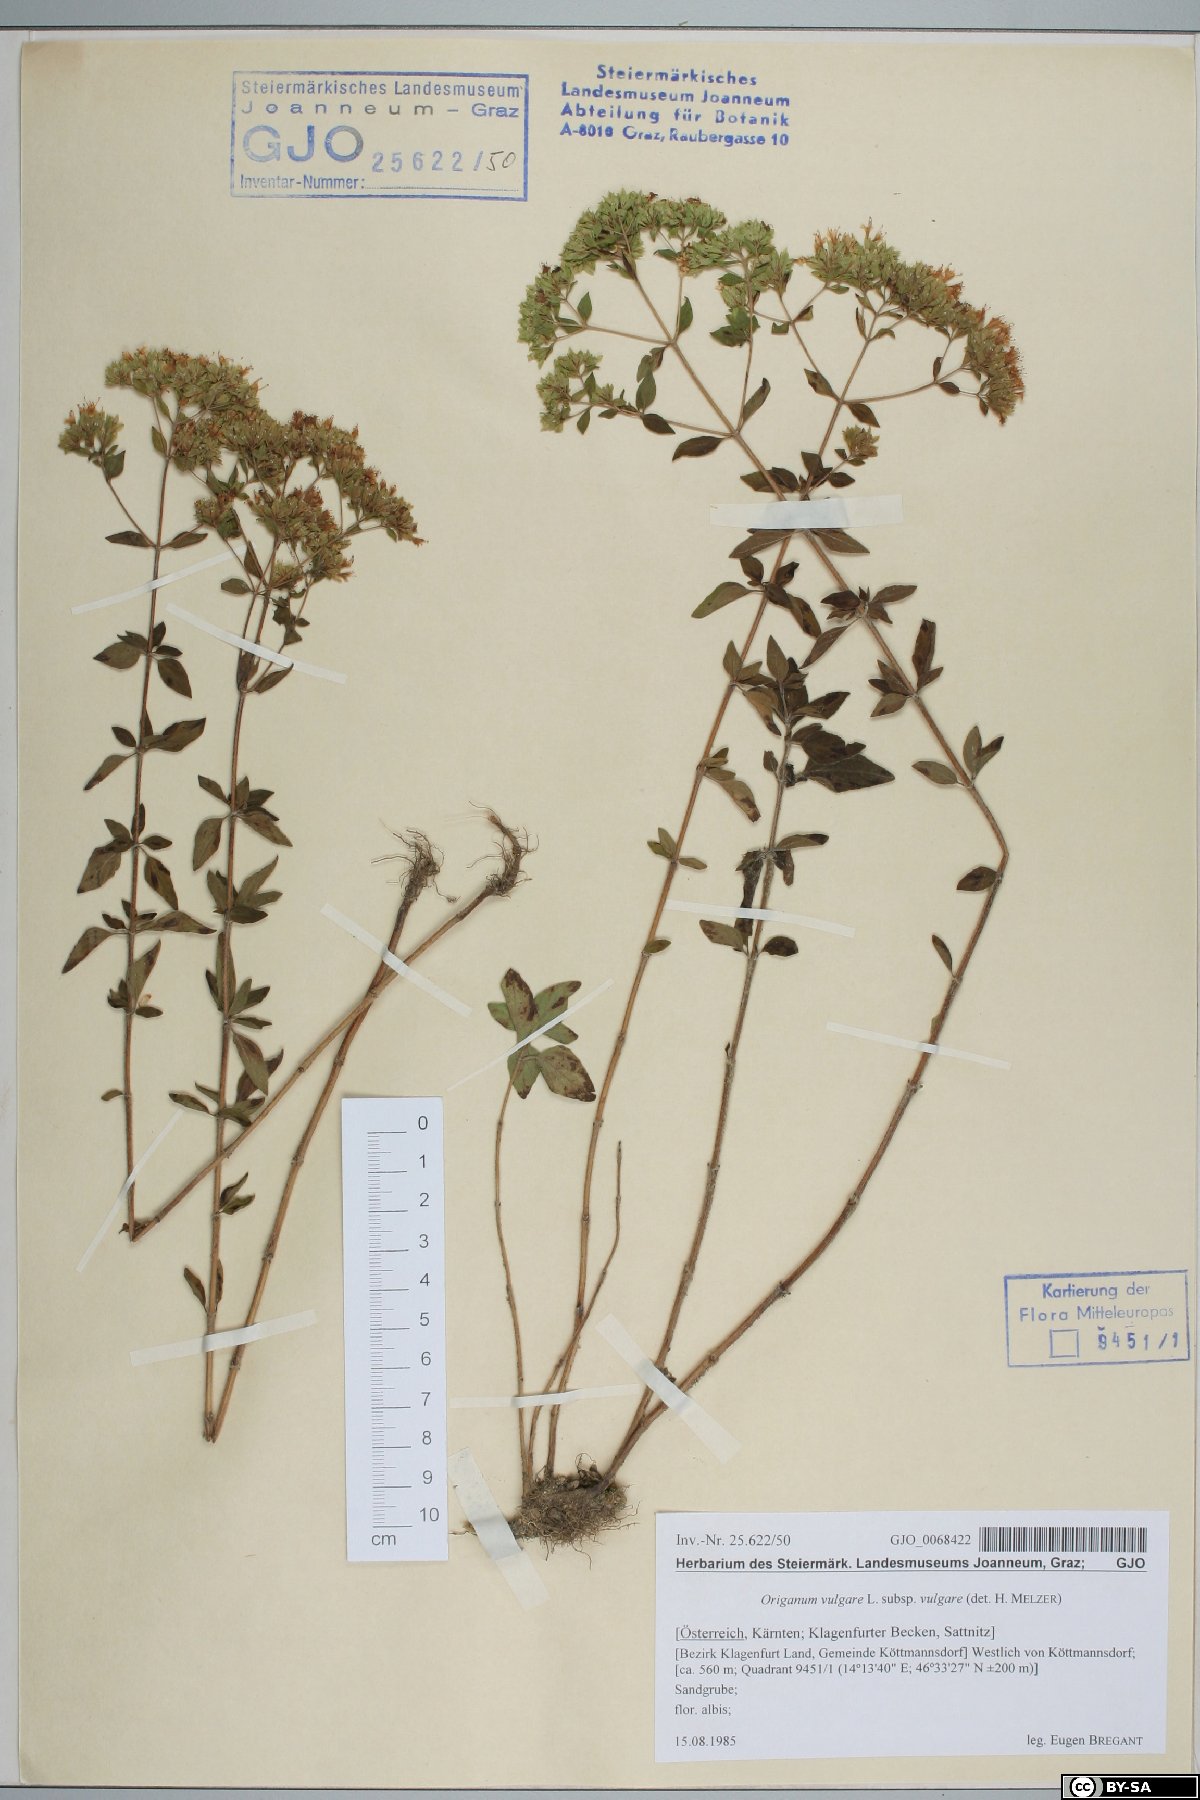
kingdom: Plantae
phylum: Tracheophyta
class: Magnoliopsida
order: Lamiales
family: Lamiaceae
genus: Origanum
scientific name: Origanum vulgare
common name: Wild marjoram
